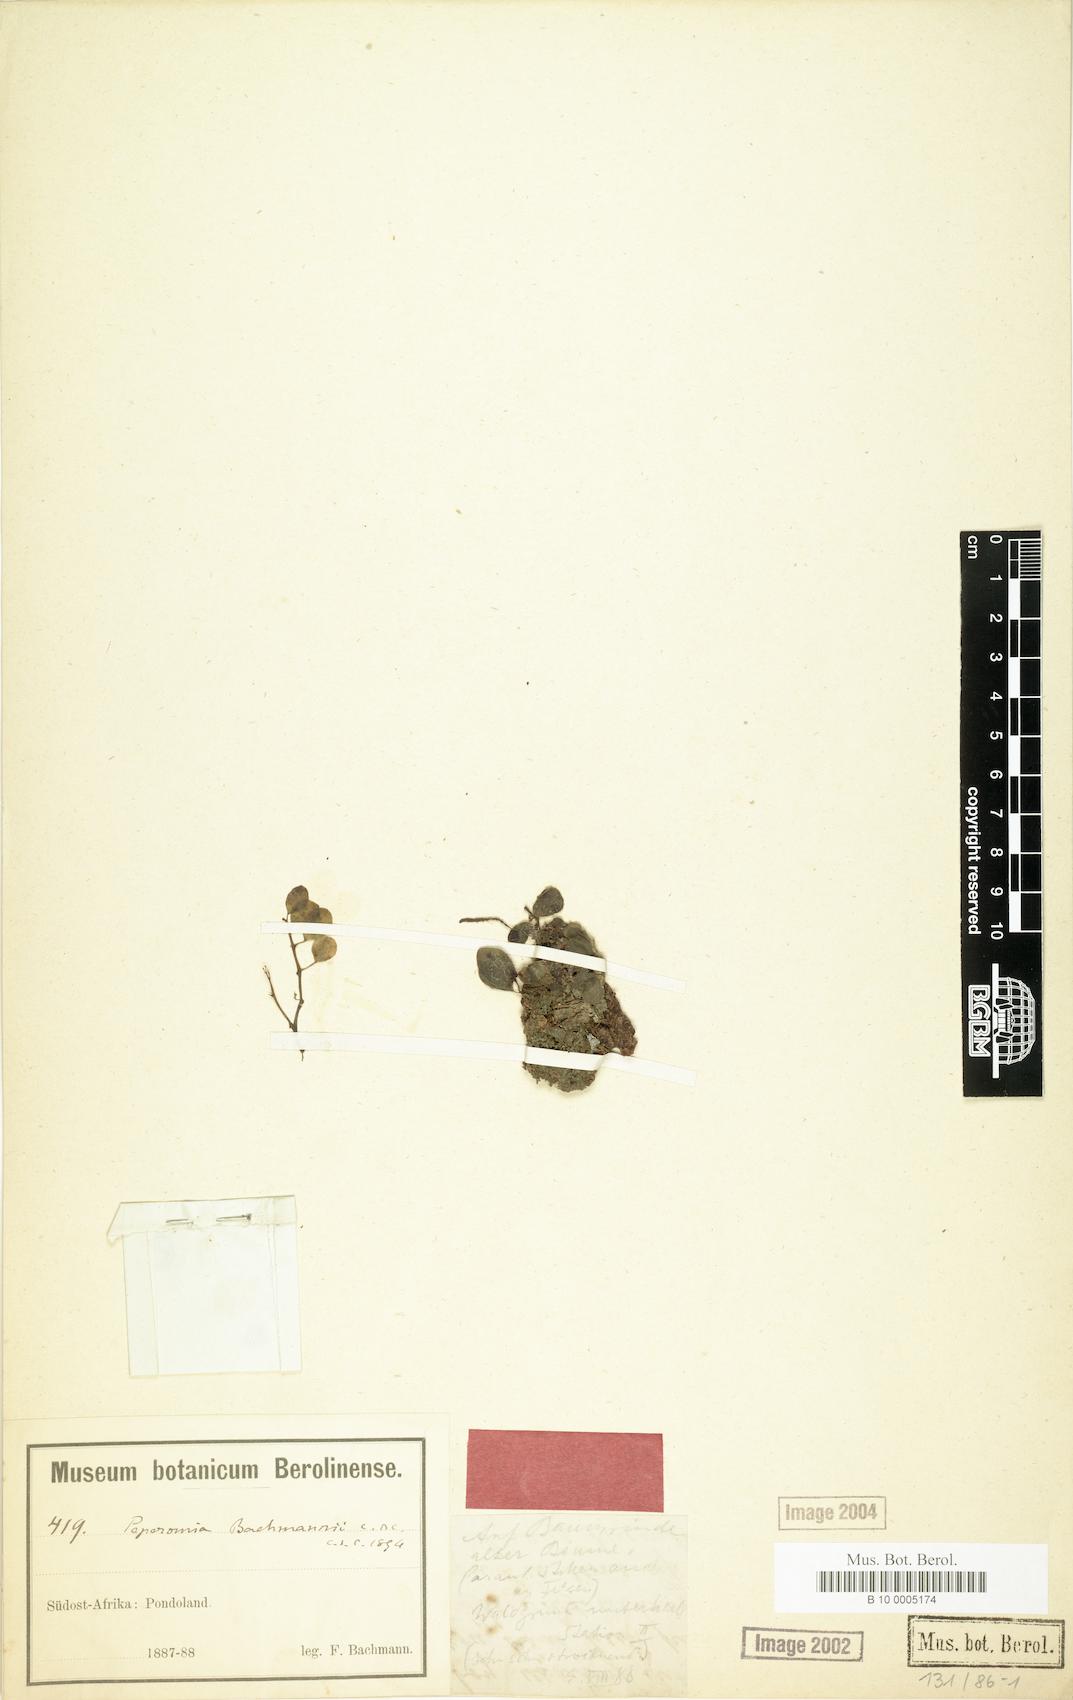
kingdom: Plantae
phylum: Tracheophyta
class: Magnoliopsida
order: Piperales
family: Piperaceae
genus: Peperomia
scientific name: Peperomia retusa
